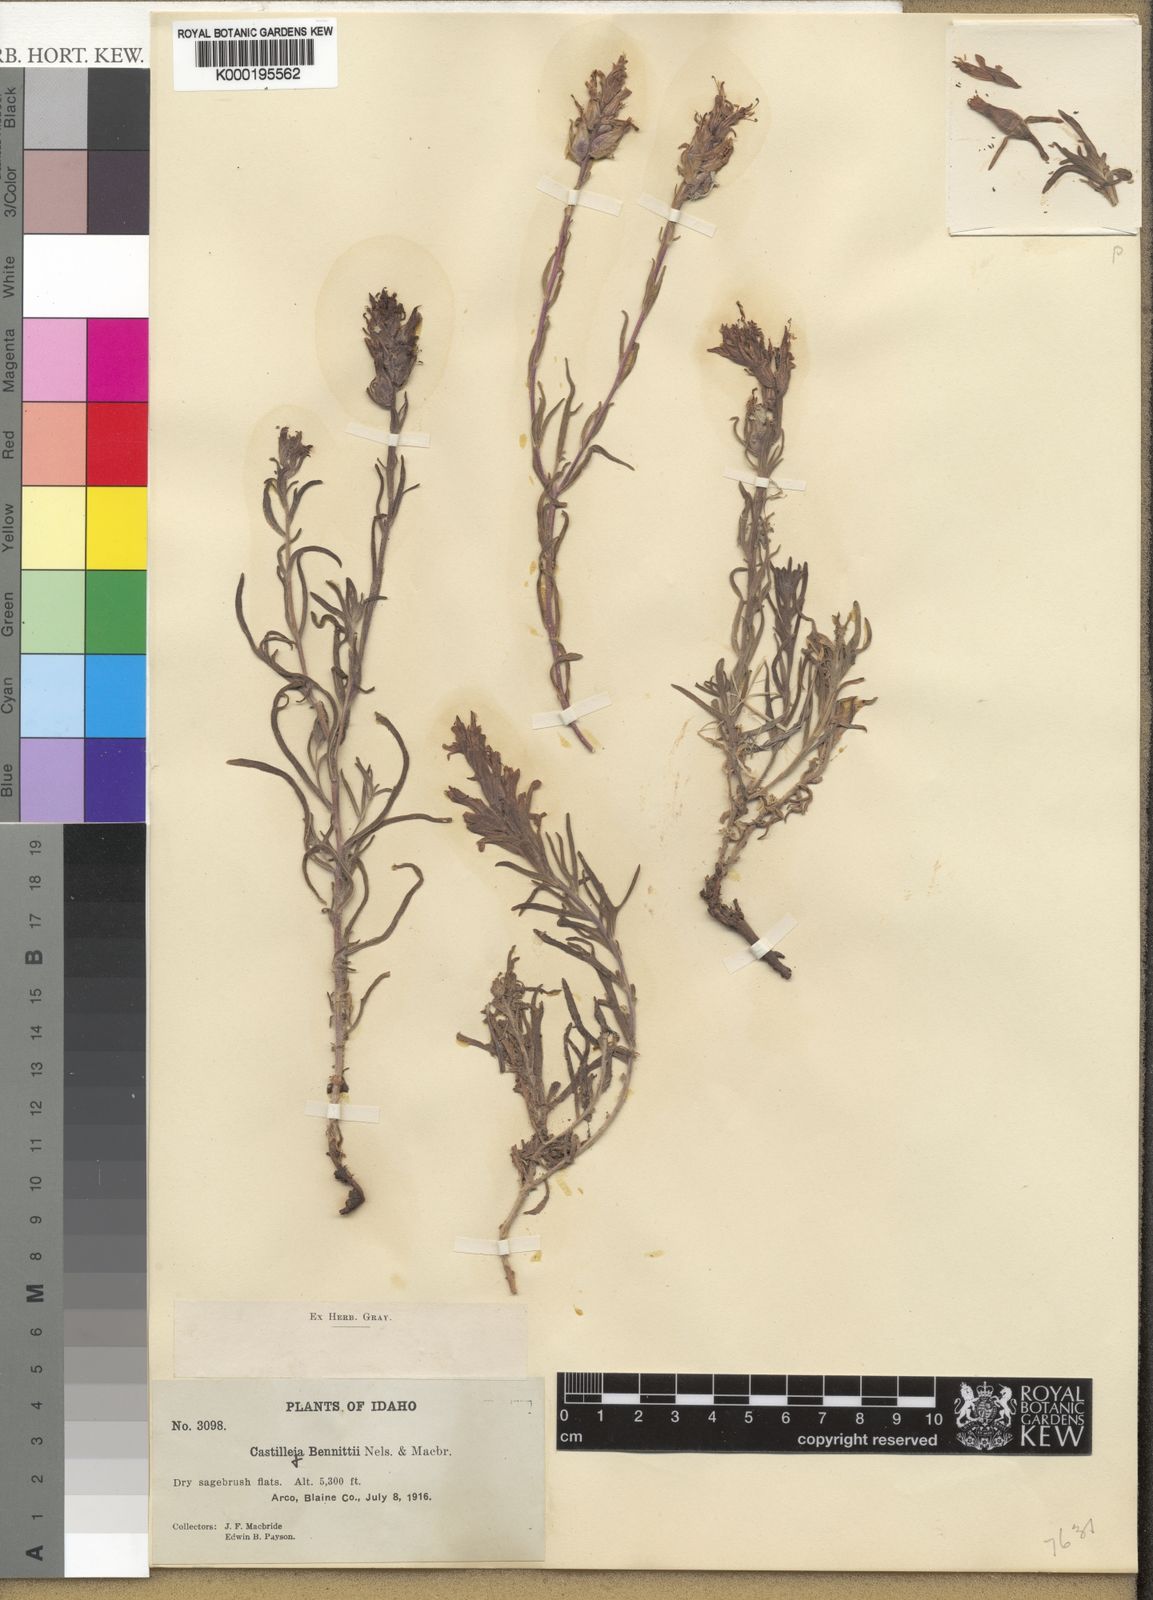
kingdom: Plantae
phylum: Tracheophyta
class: Magnoliopsida
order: Lamiales
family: Orobanchaceae
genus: Castilleja
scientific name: Castilleja angustifolia
